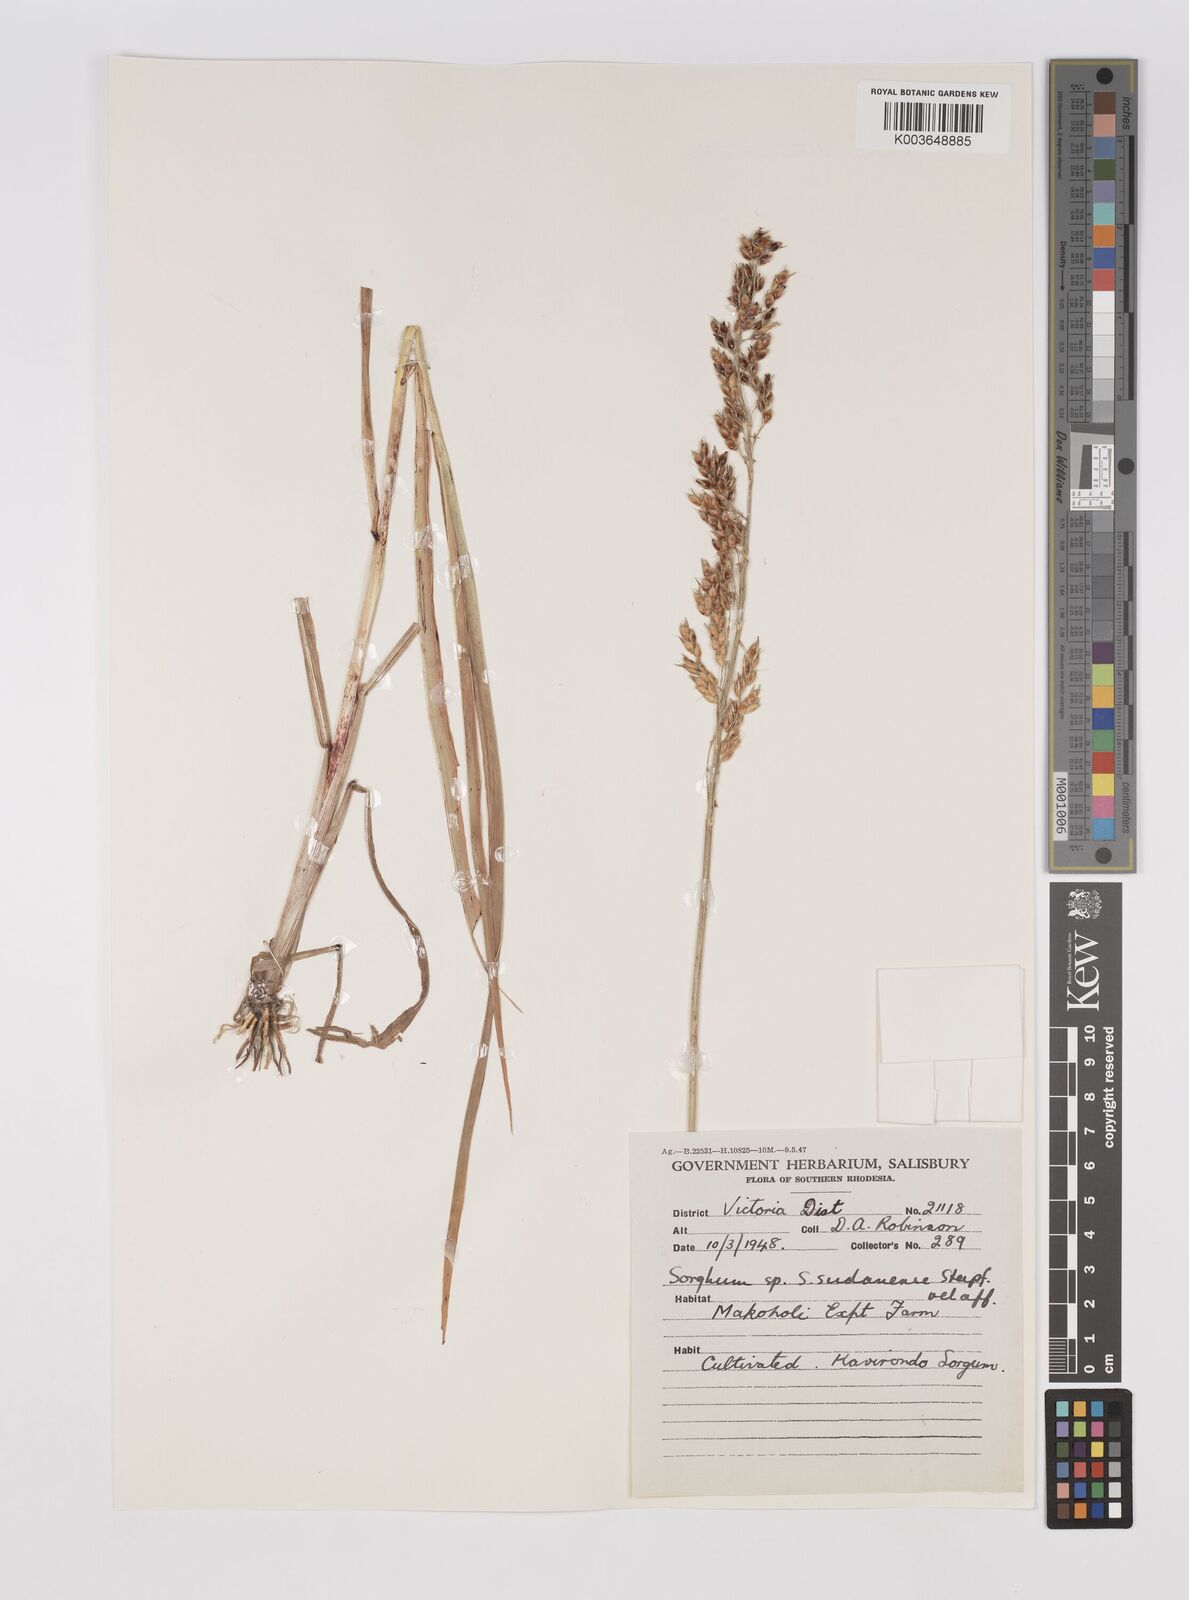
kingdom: Plantae
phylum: Tracheophyta
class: Liliopsida
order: Poales
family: Poaceae
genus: Sorghum
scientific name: Sorghum drummondii
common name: Sudangrass
